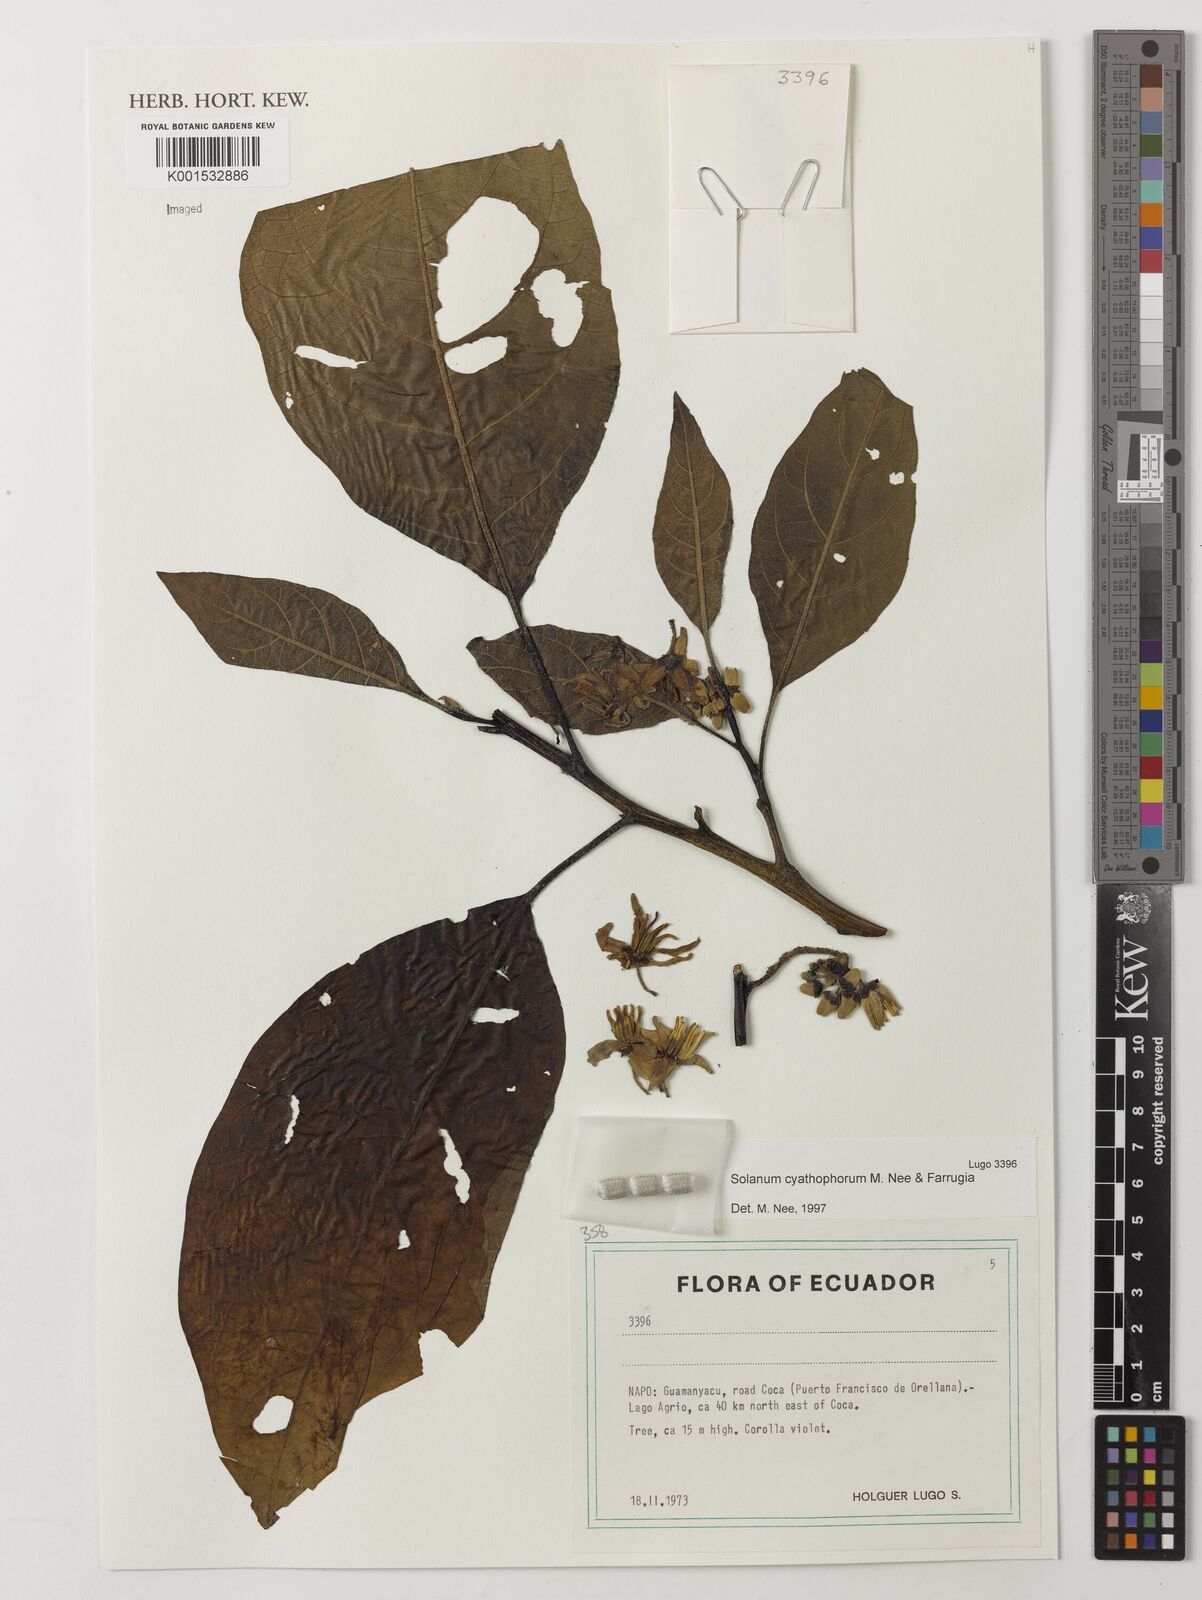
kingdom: Plantae
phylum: Tracheophyta
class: Magnoliopsida
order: Solanales
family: Solanaceae
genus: Solanum
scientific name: Solanum cyathophorum
